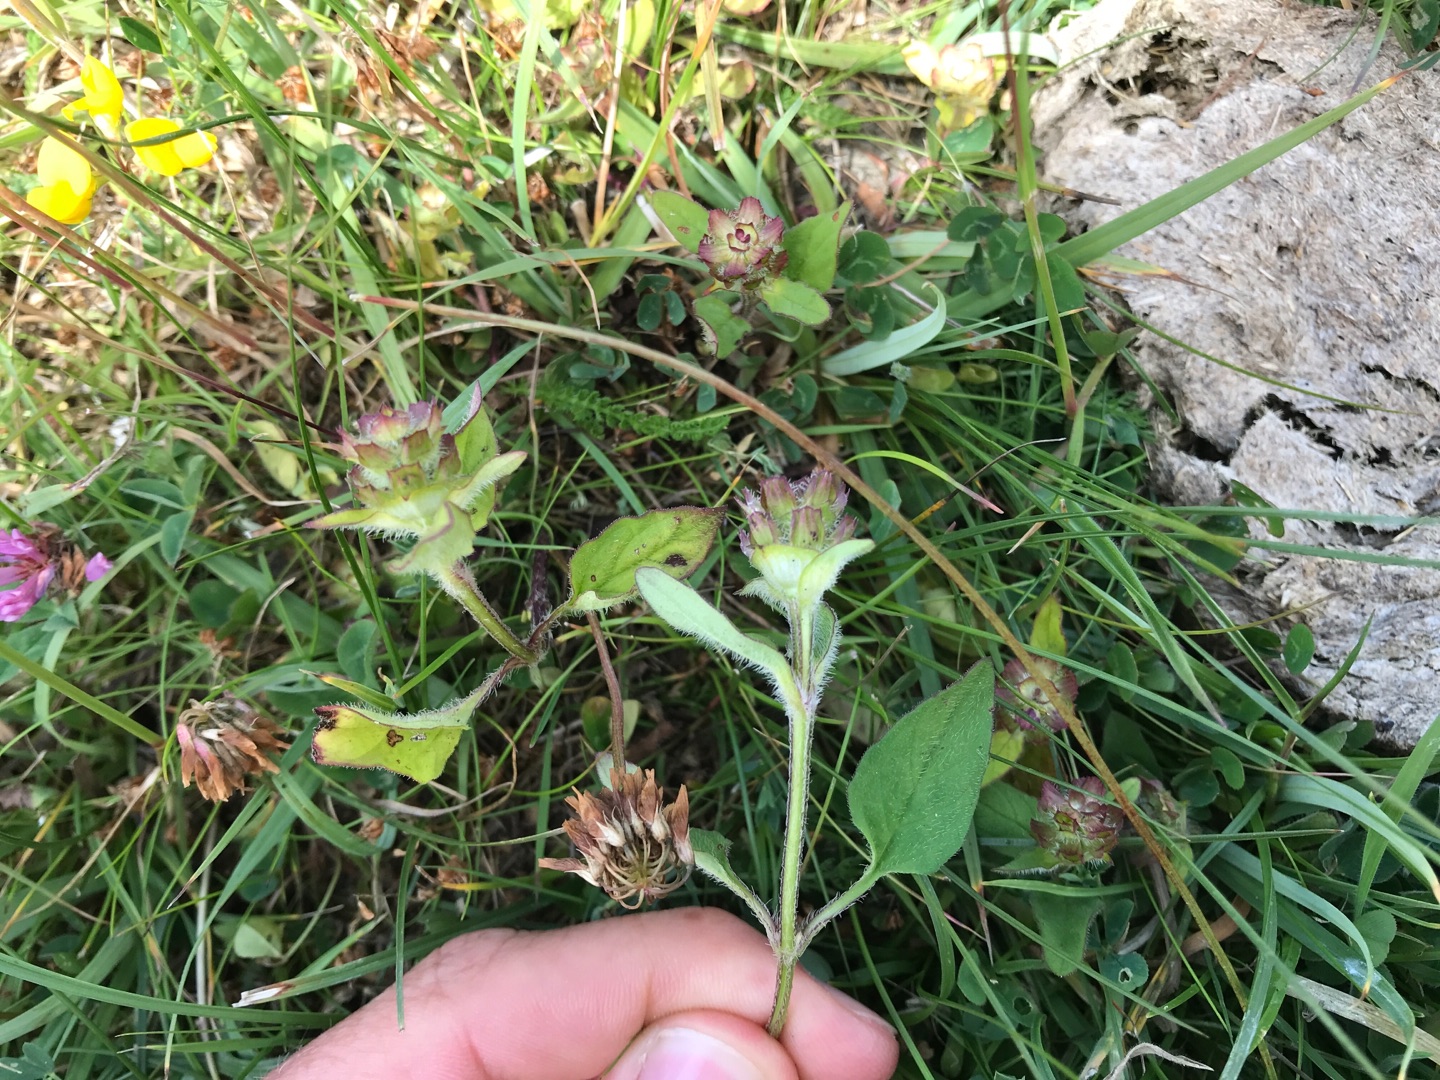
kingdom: Plantae
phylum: Tracheophyta
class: Magnoliopsida
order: Lamiales
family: Lamiaceae
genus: Prunella
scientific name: Prunella vulgaris
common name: Almindelig brunelle
